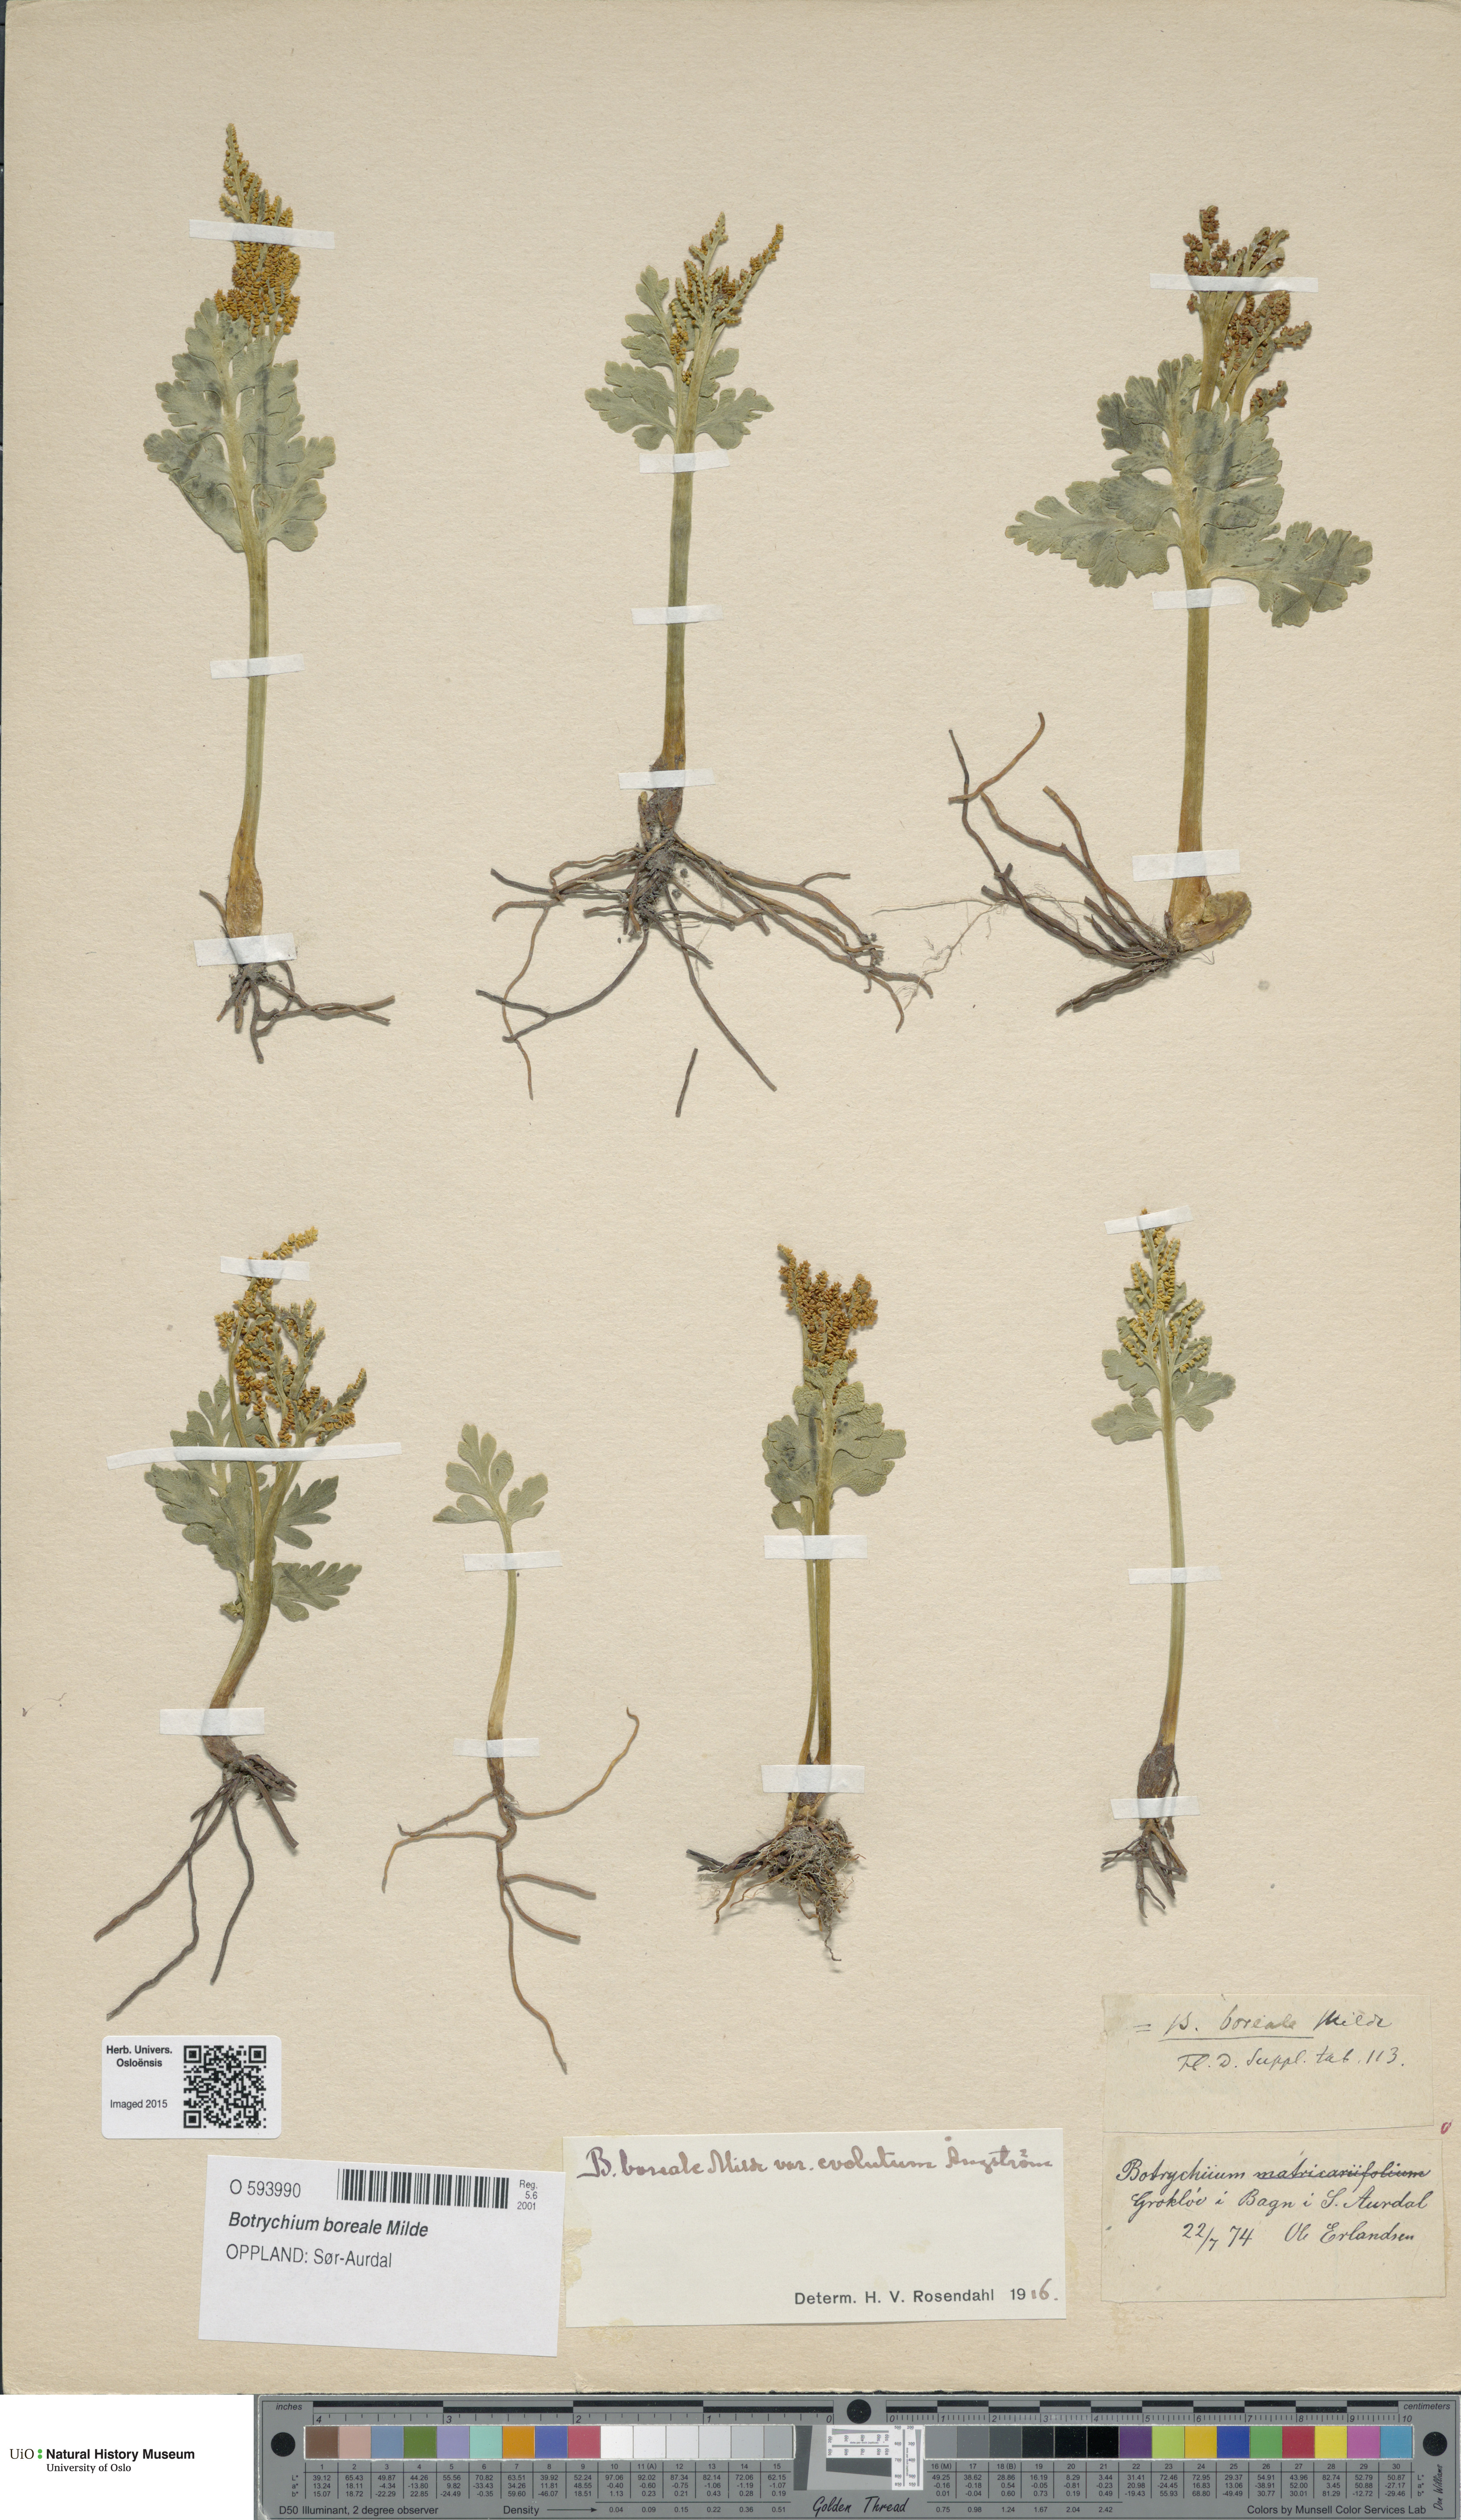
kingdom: Plantae
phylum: Tracheophyta
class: Polypodiopsida
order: Ophioglossales
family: Ophioglossaceae
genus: Botrychium
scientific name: Botrychium boreale
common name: Boreal moonwort
